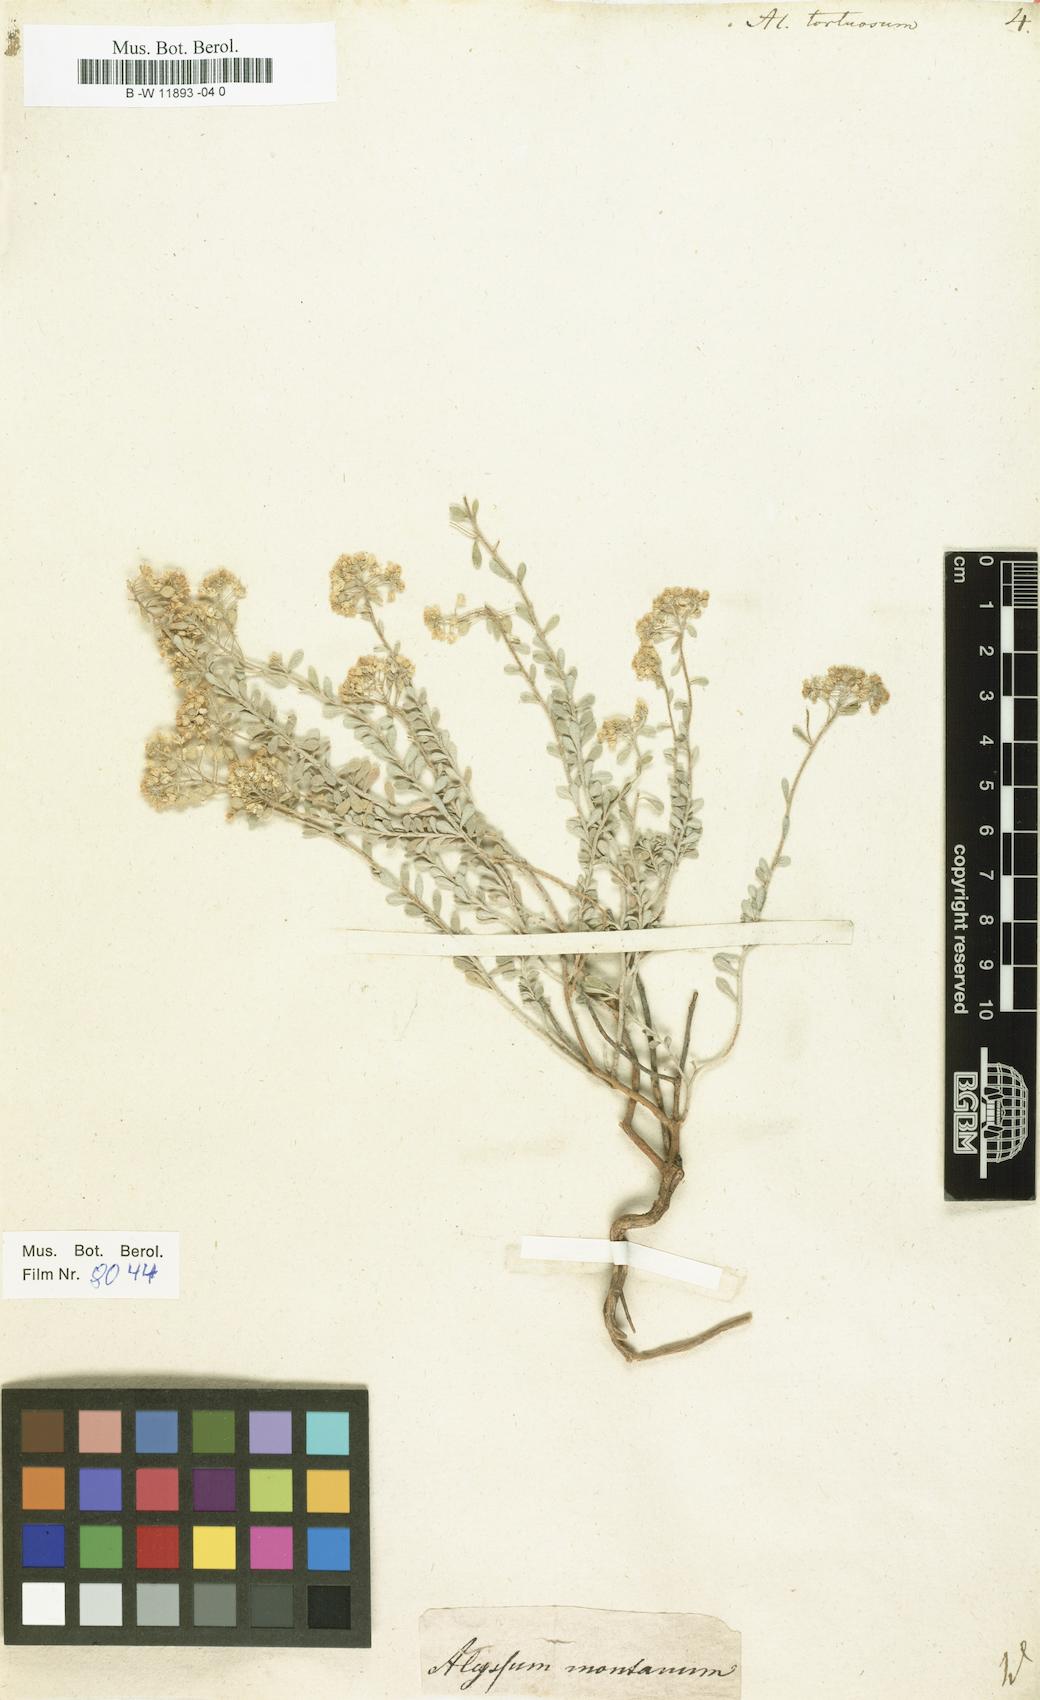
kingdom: Plantae
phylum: Tracheophyta
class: Magnoliopsida
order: Brassicales
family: Brassicaceae
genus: Odontarrhena
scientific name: Odontarrhena tortuosa
